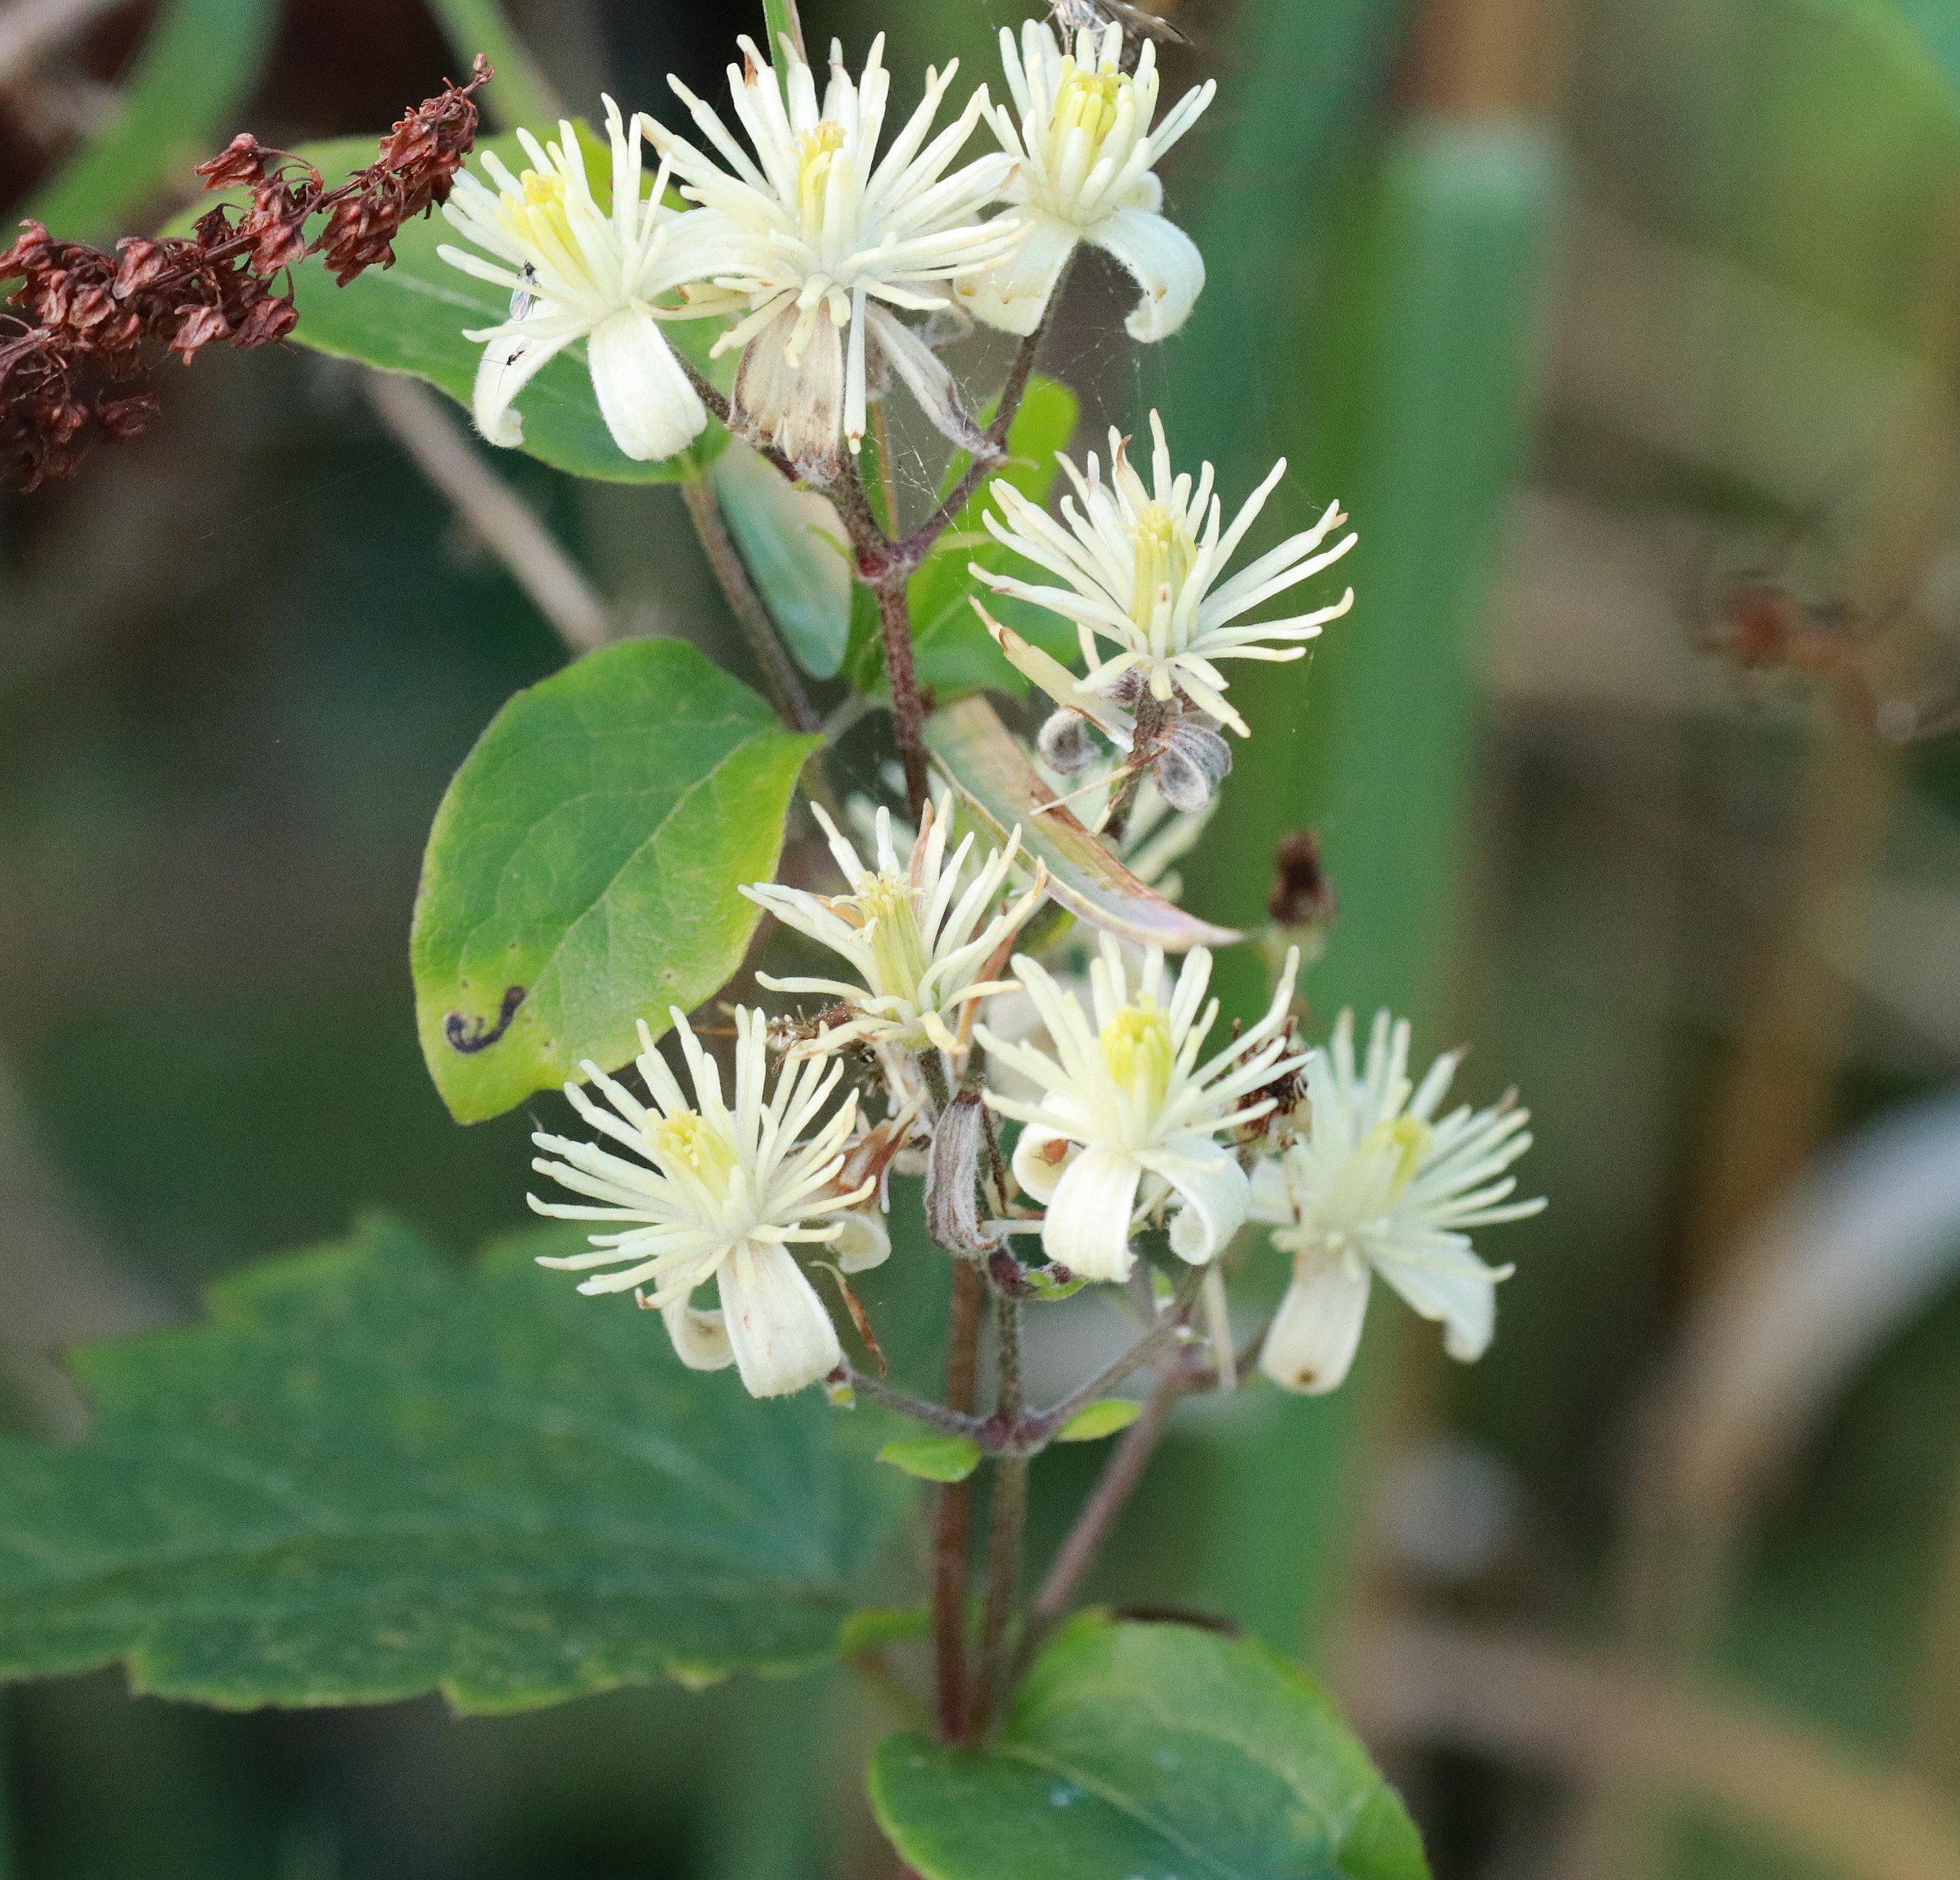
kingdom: Plantae
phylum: Tracheophyta
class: Magnoliopsida
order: Ranunculales
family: Ranunculaceae
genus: Clematis
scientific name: Clematis vitalba
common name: Skovranke
